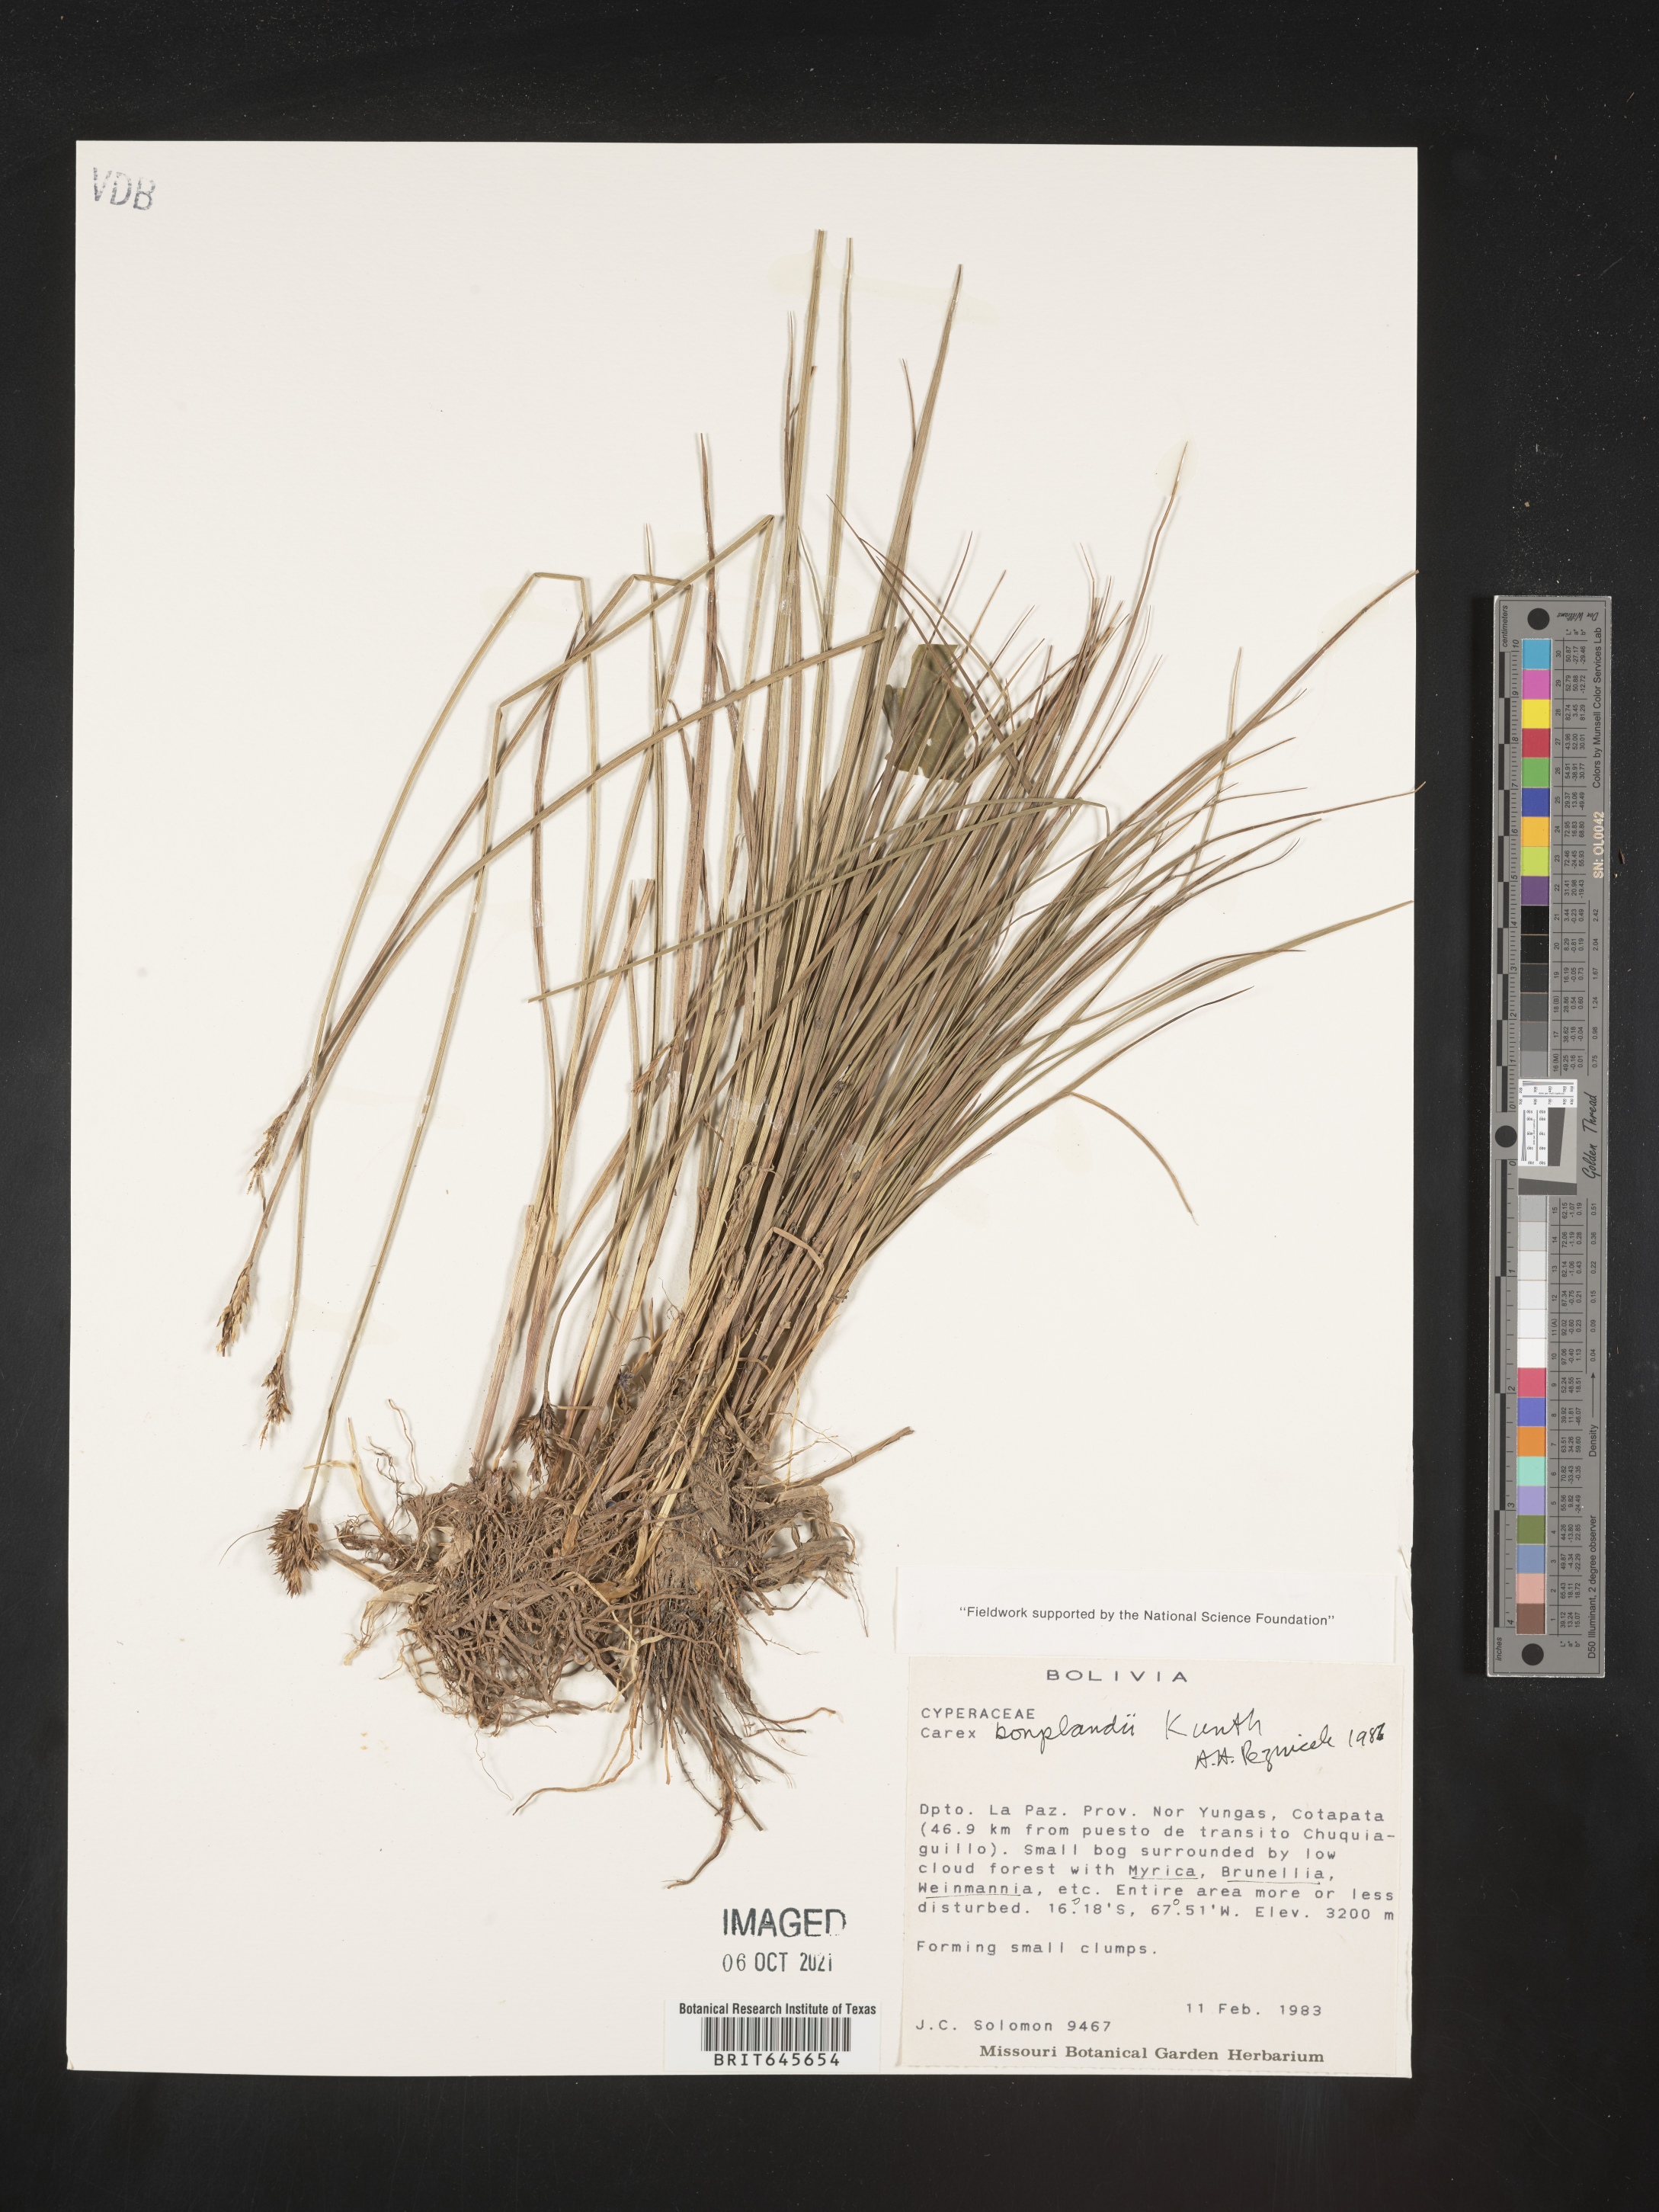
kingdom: Plantae
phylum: Tracheophyta
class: Liliopsida
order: Poales
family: Cyperaceae
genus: Carex
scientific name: Carex bonplandii
